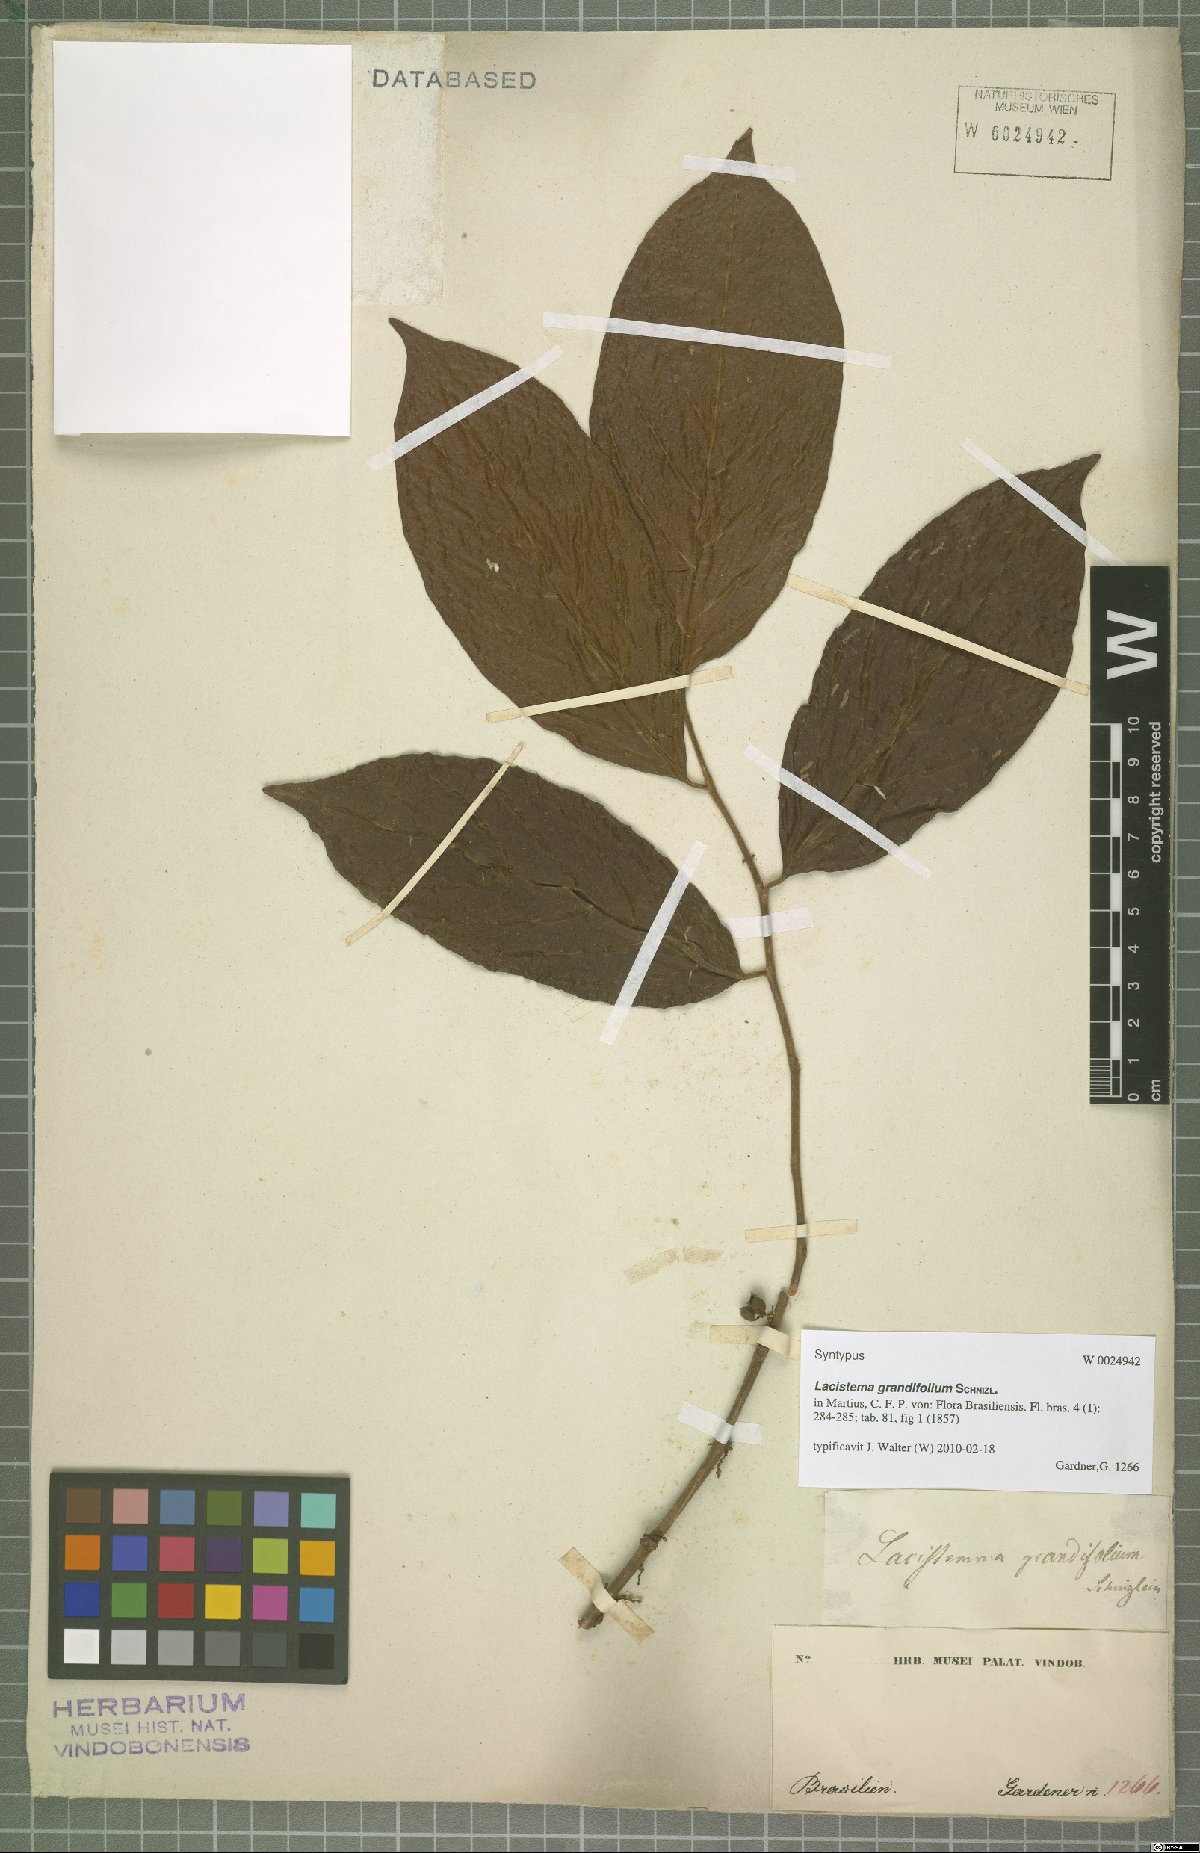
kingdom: Plantae
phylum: Tracheophyta
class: Magnoliopsida
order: Malpighiales
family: Lacistemataceae
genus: Lacistema
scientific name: Lacistema grandifolium
